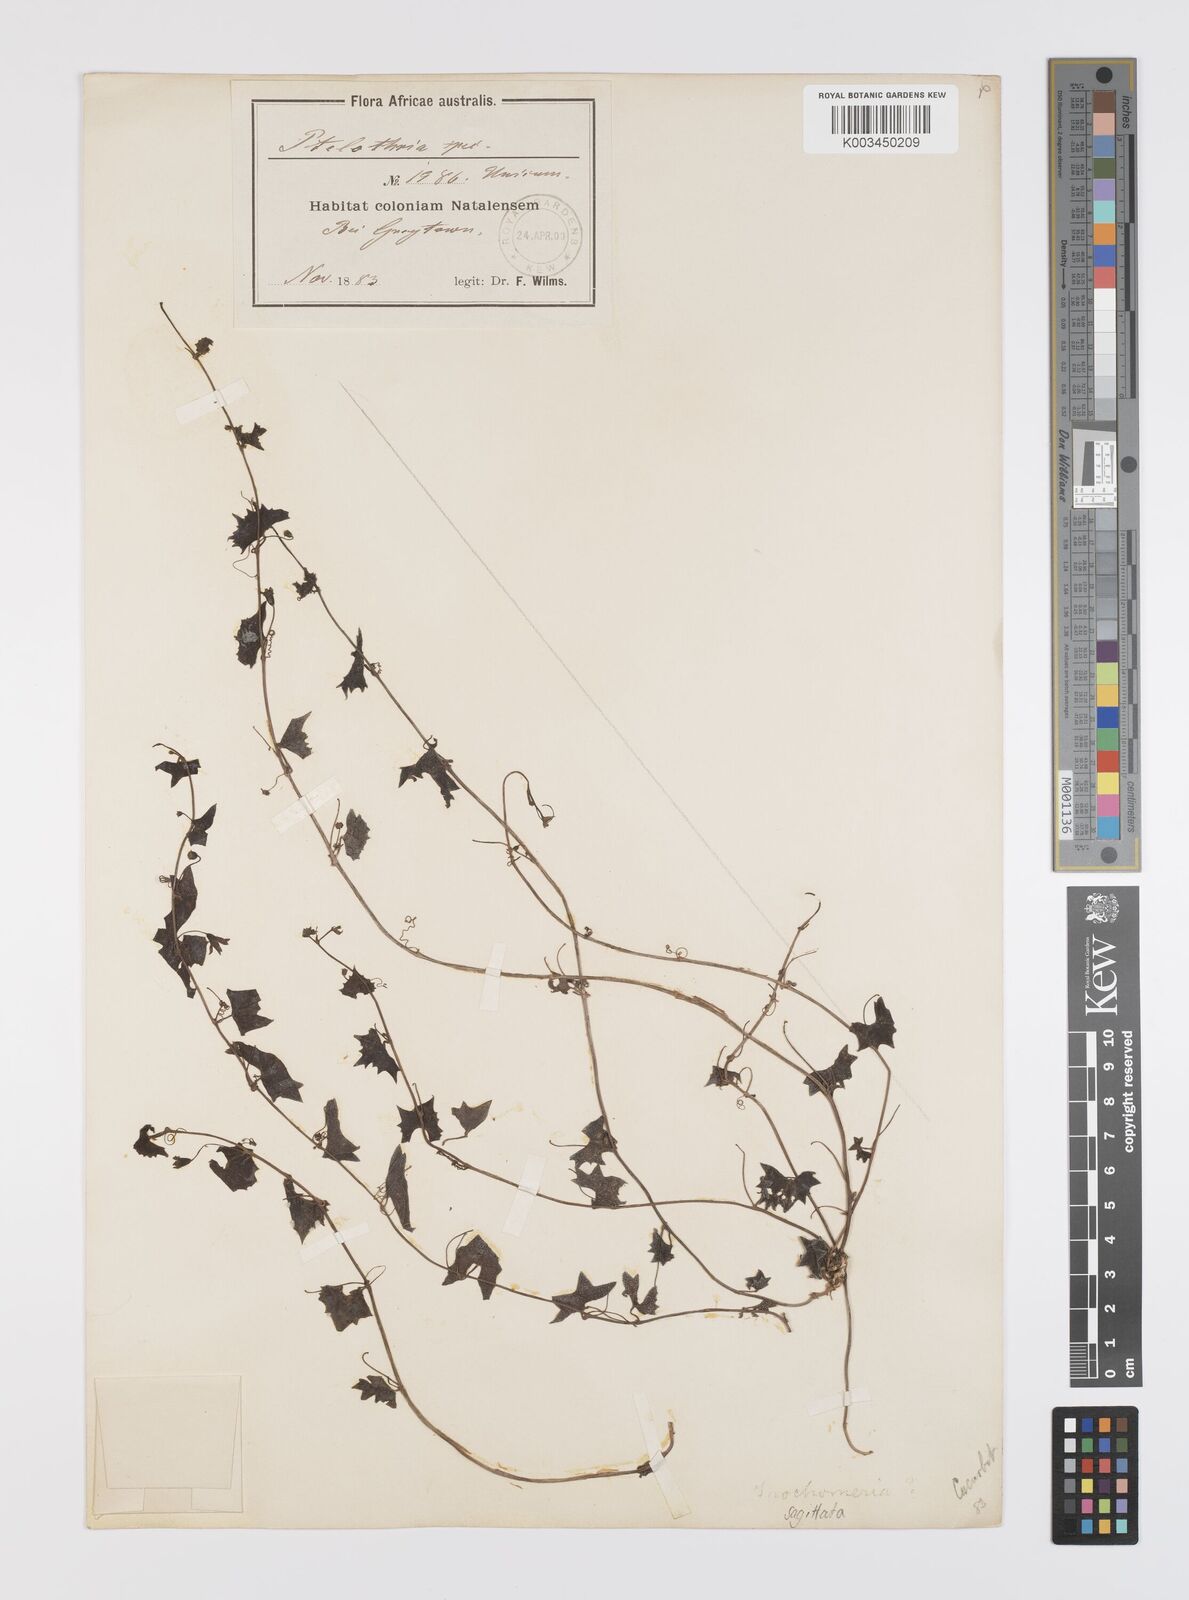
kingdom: Plantae
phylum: Tracheophyta
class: Magnoliopsida
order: Cucurbitales
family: Cucurbitaceae
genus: Trochomeria
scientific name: Trochomeria sagittata
